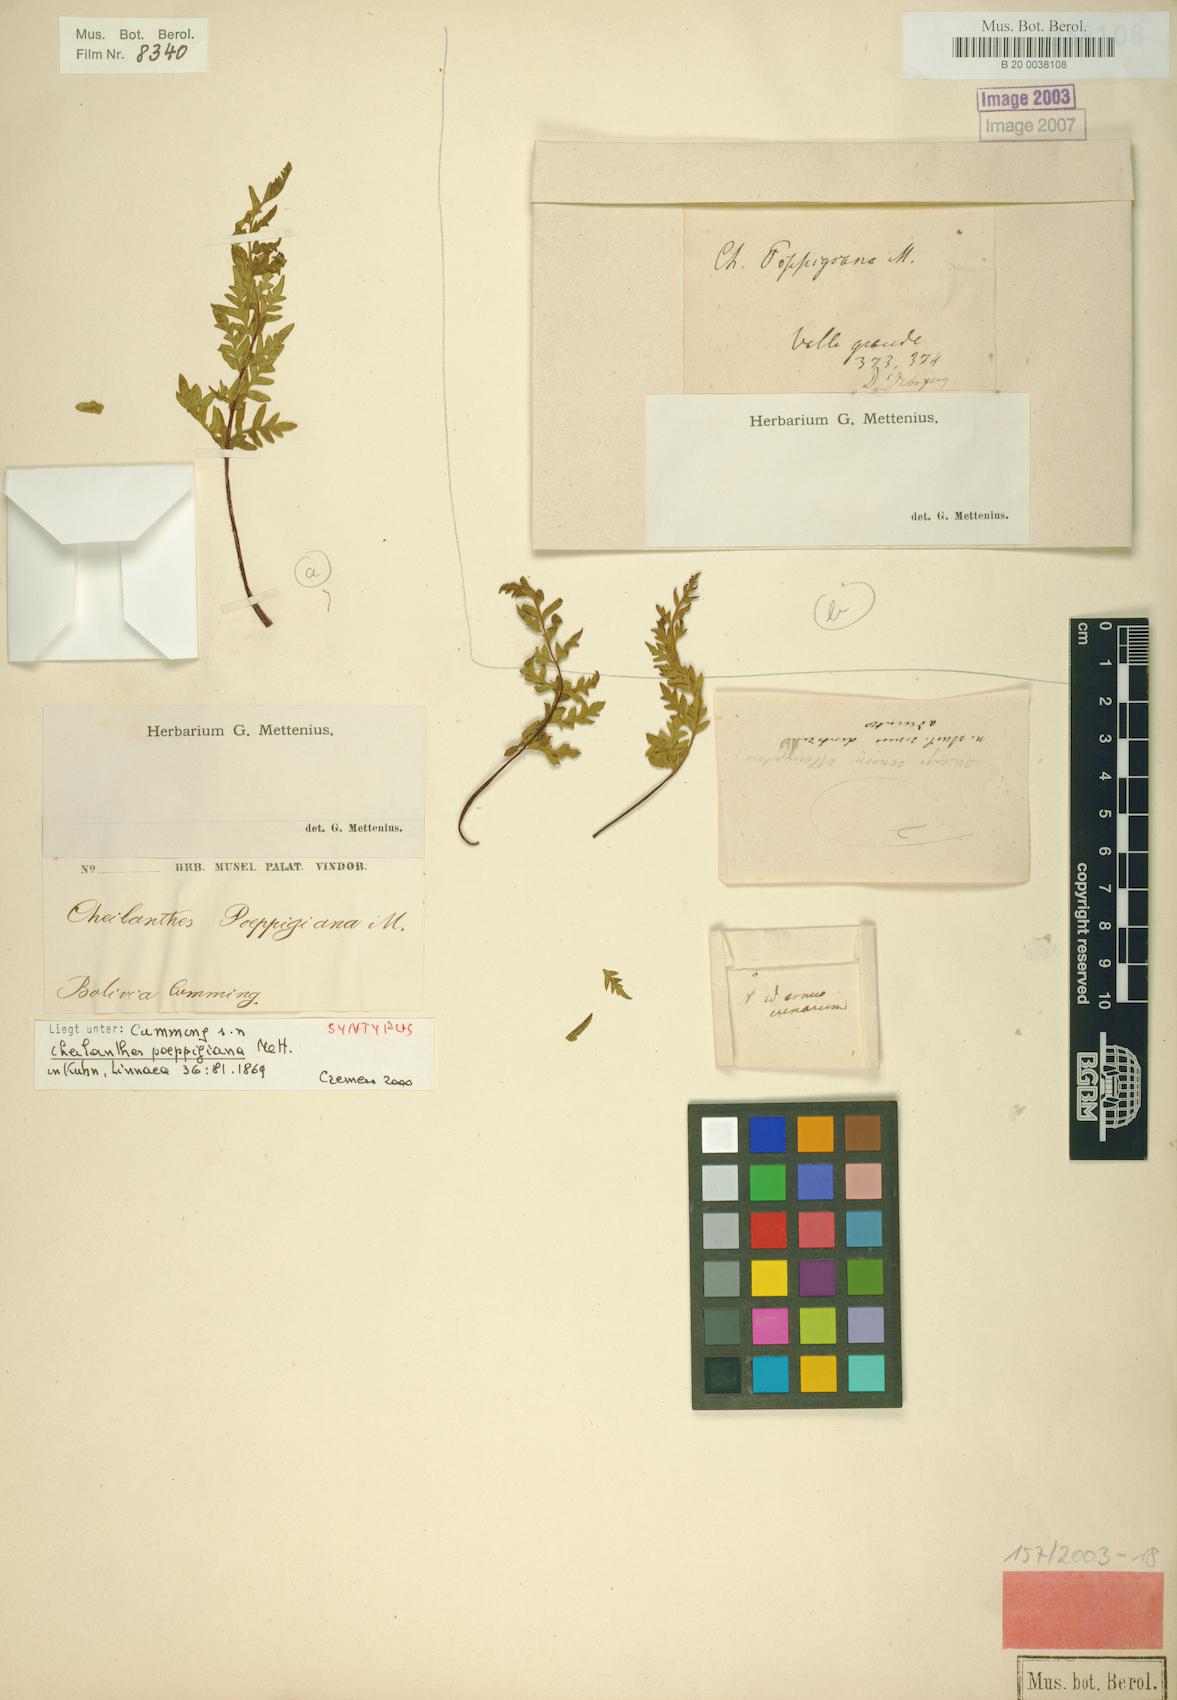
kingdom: Plantae
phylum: Tracheophyta
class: Polypodiopsida
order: Polypodiales
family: Pteridaceae
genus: Cheilanthes
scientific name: Cheilanthes poeppigiana
